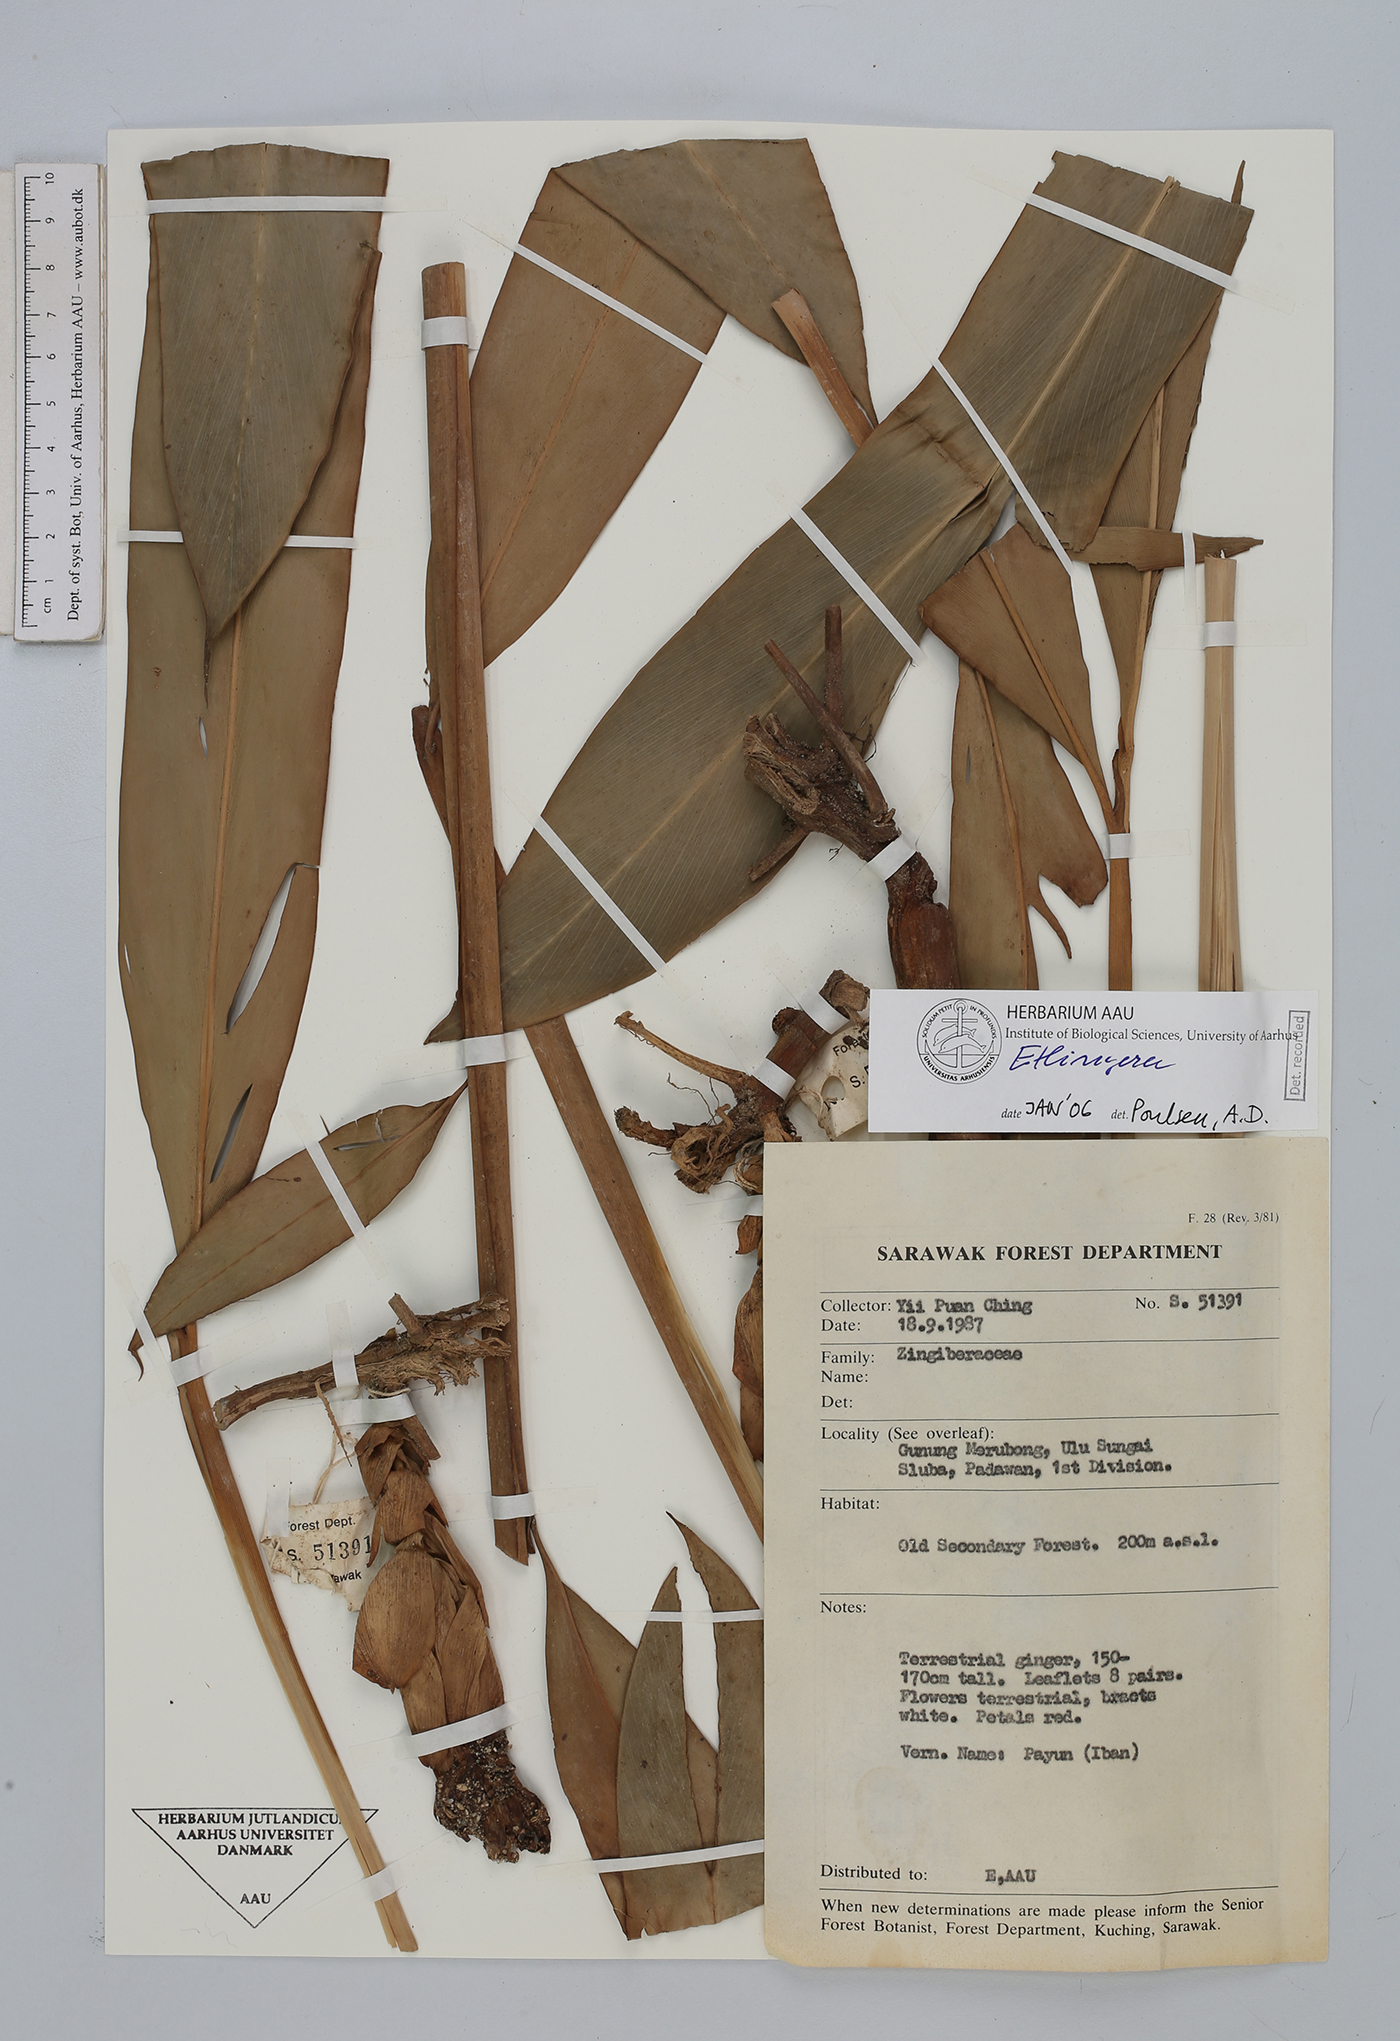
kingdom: Plantae
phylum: Tracheophyta
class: Liliopsida
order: Zingiberales
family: Zingiberaceae
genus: Etlingera
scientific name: Etlingera
